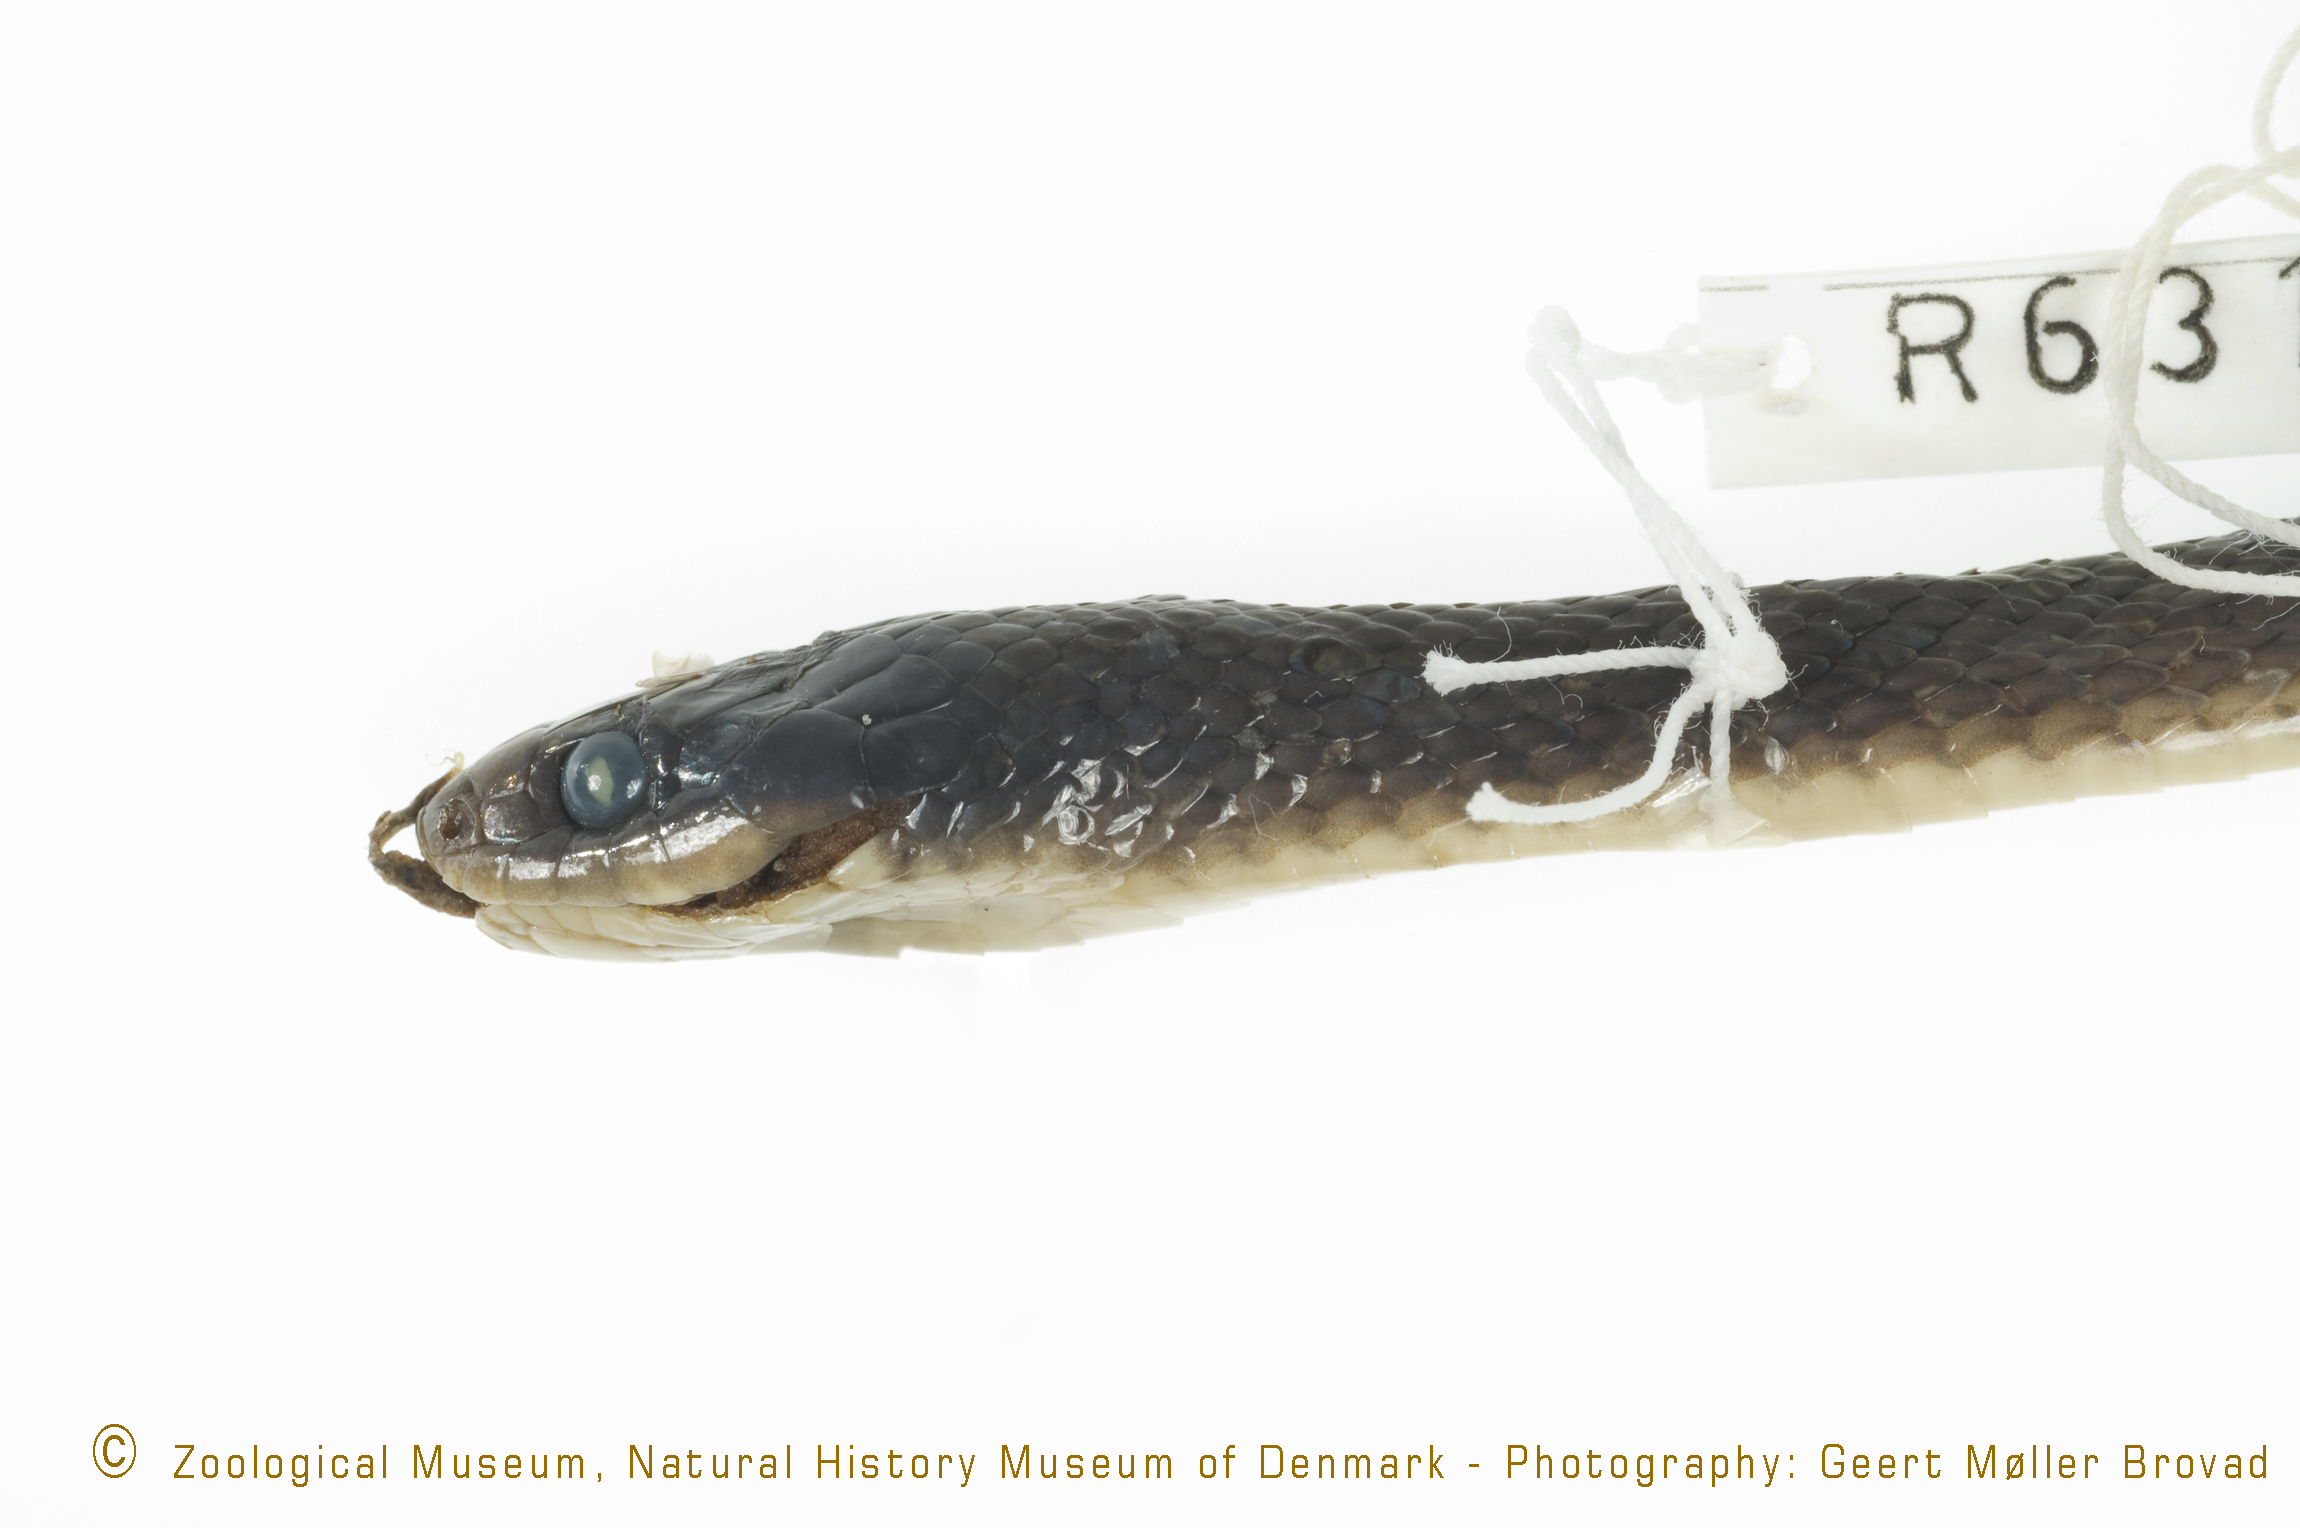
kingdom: Animalia
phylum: Chordata
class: Squamata
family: Colubridae
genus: Crotaphopeltis
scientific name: Crotaphopeltis hotamboeia
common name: Red-lipped snake
